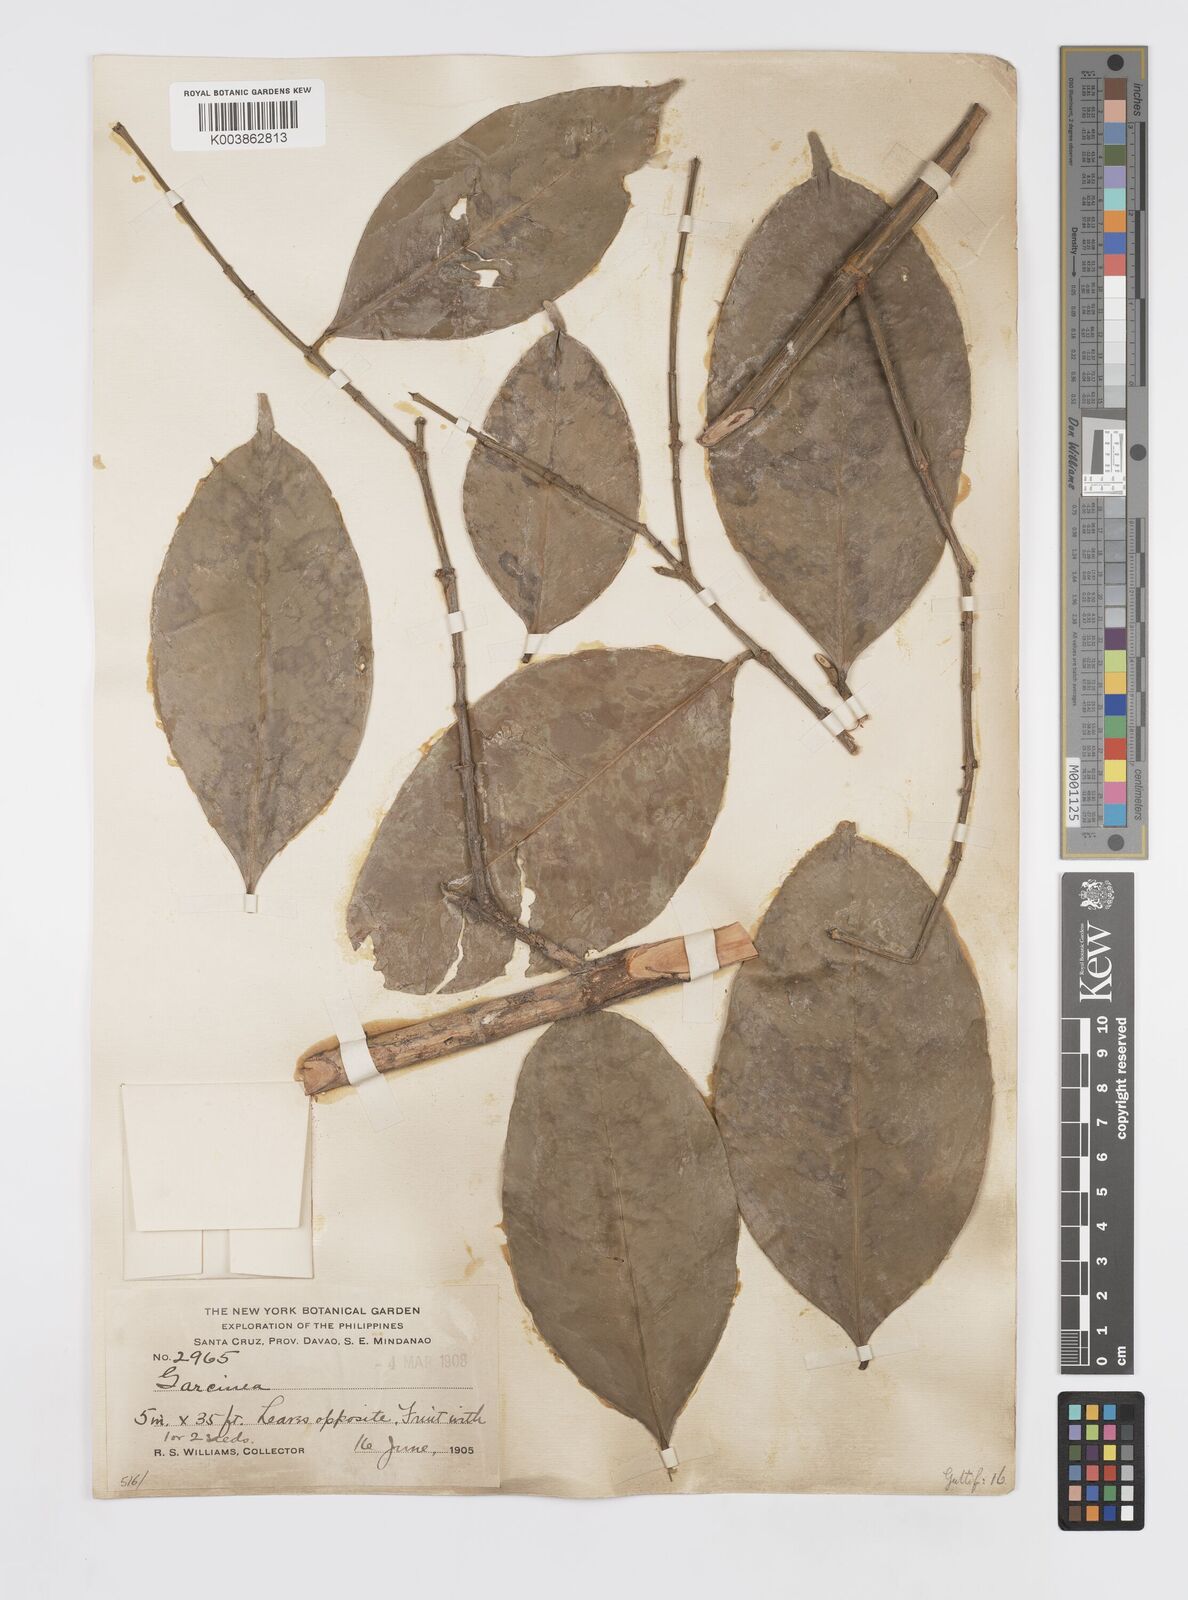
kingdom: Plantae
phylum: Tracheophyta
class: Magnoliopsida
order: Malpighiales
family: Clusiaceae
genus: Garcinia
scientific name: Garcinia
